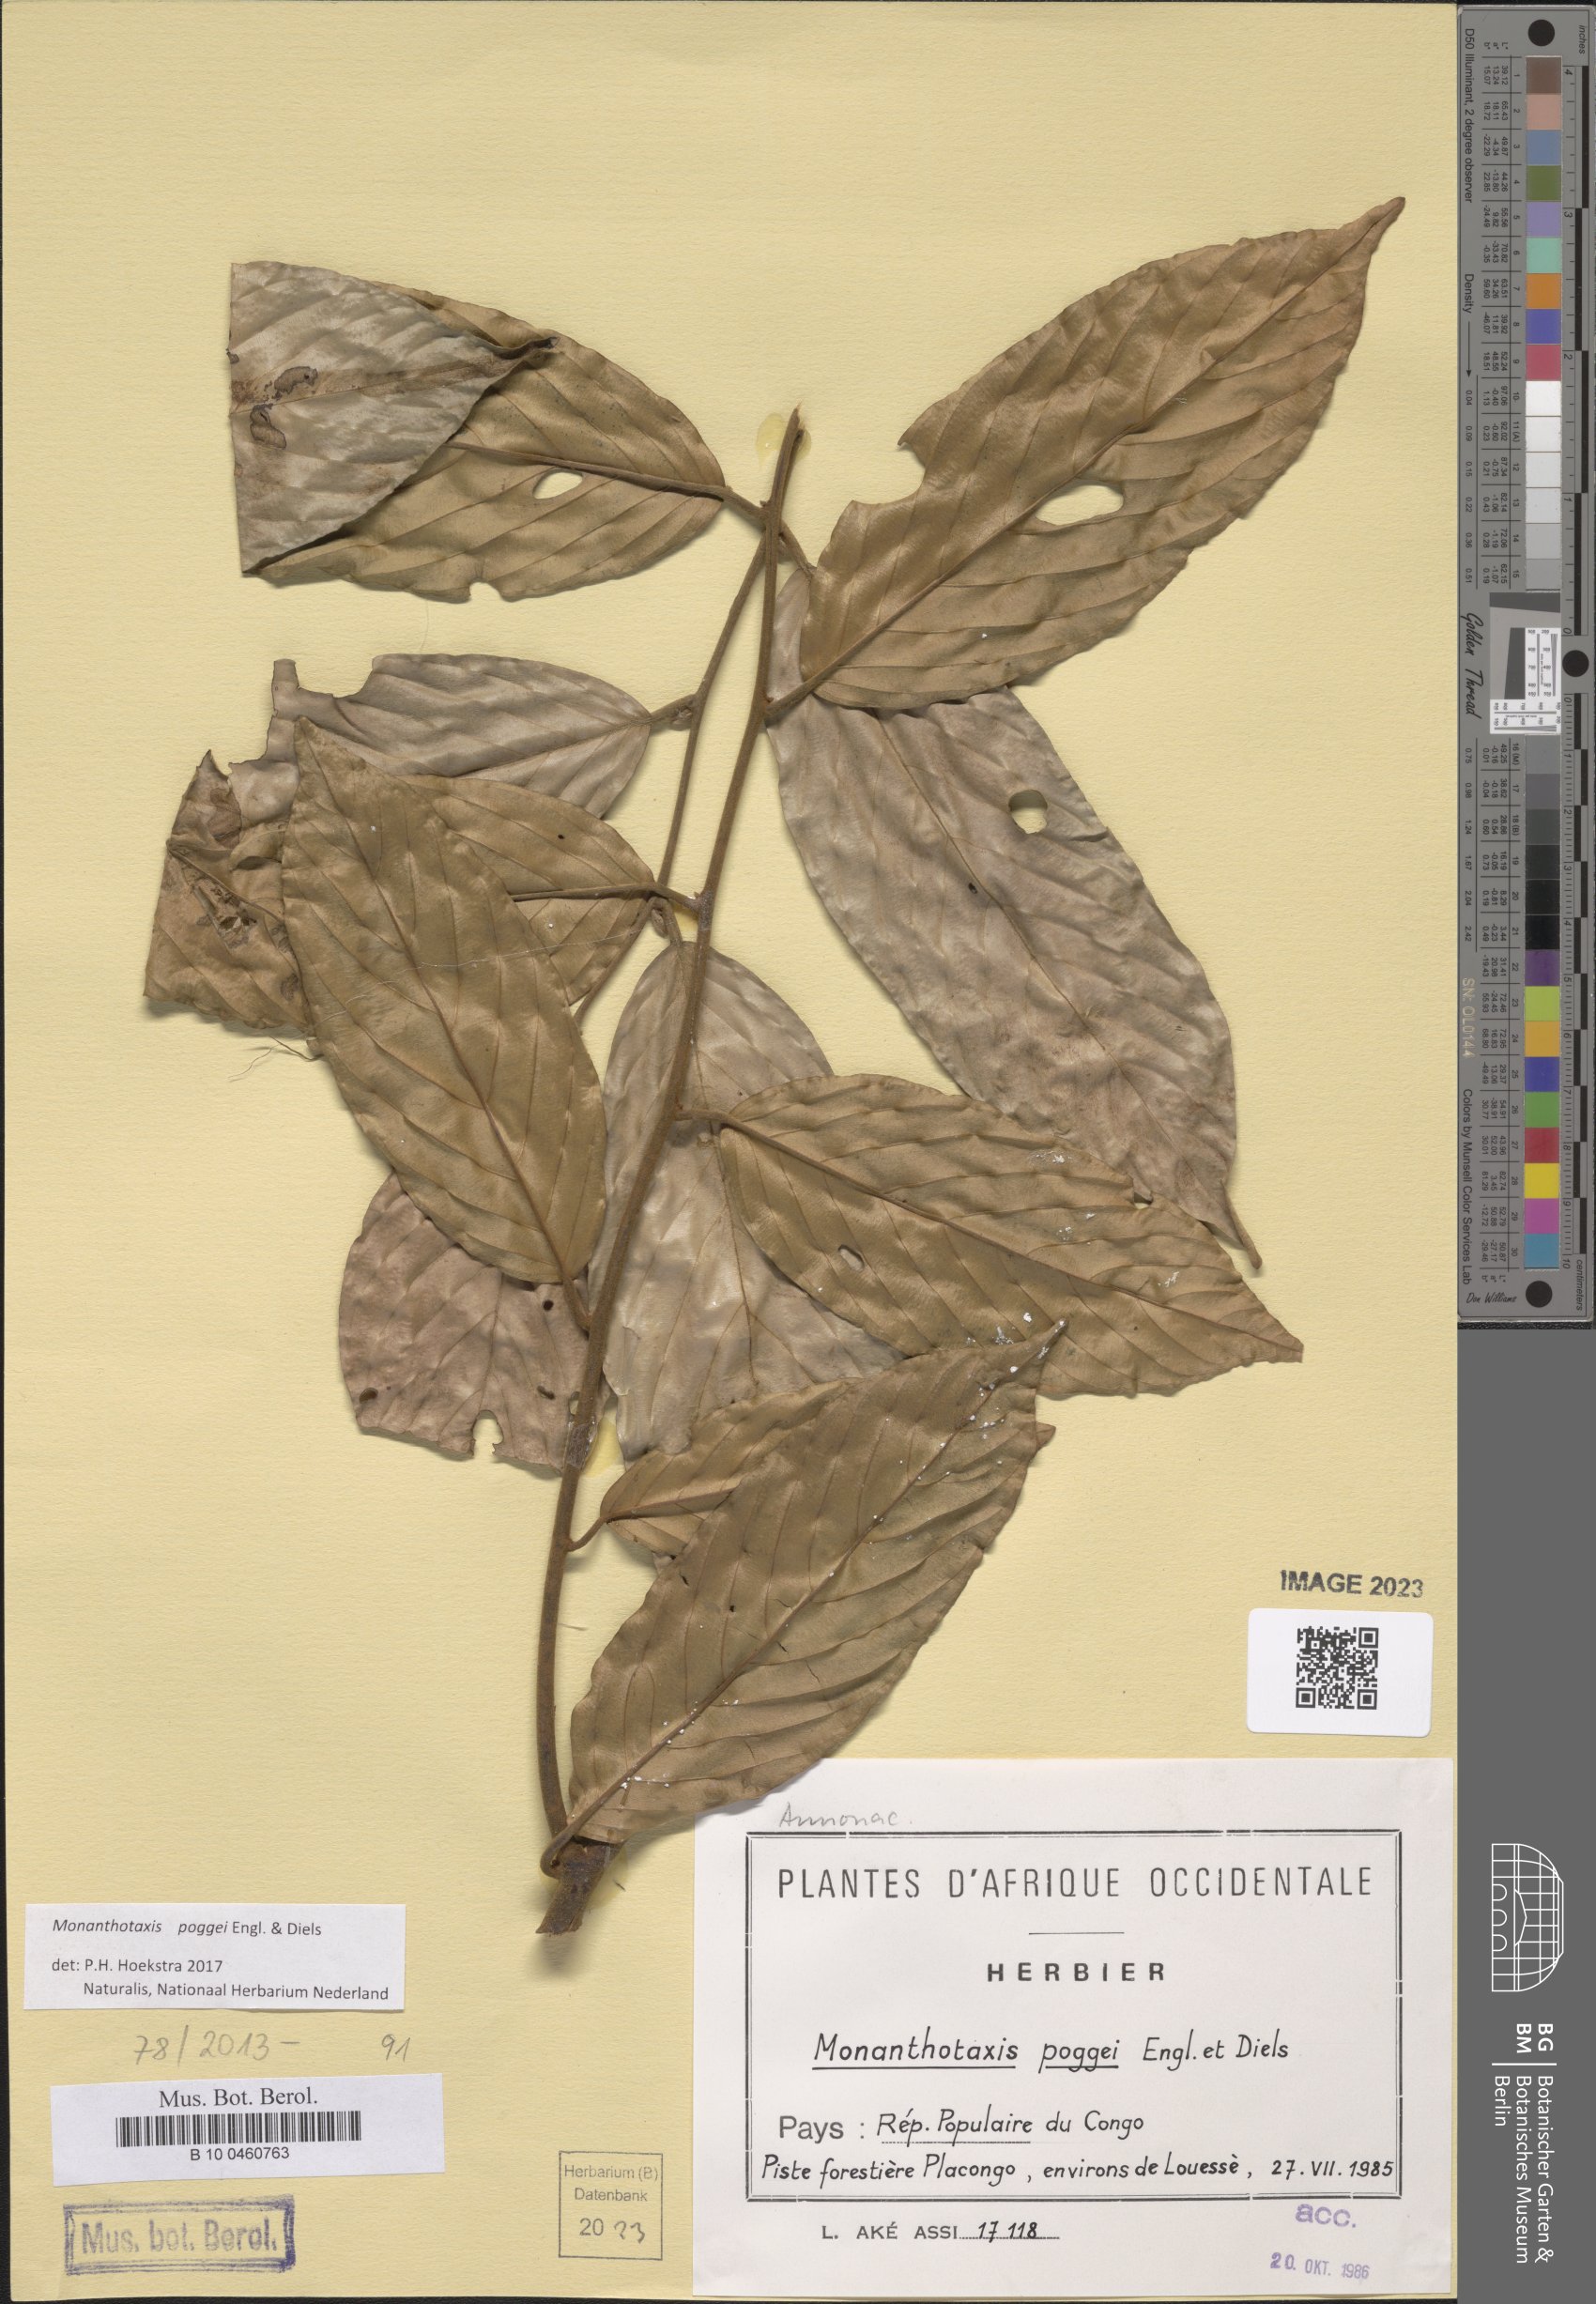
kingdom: Plantae
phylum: Tracheophyta
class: Magnoliopsida
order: Magnoliales
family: Annonaceae
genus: Monanthotaxis
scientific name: Monanthotaxis poggei
